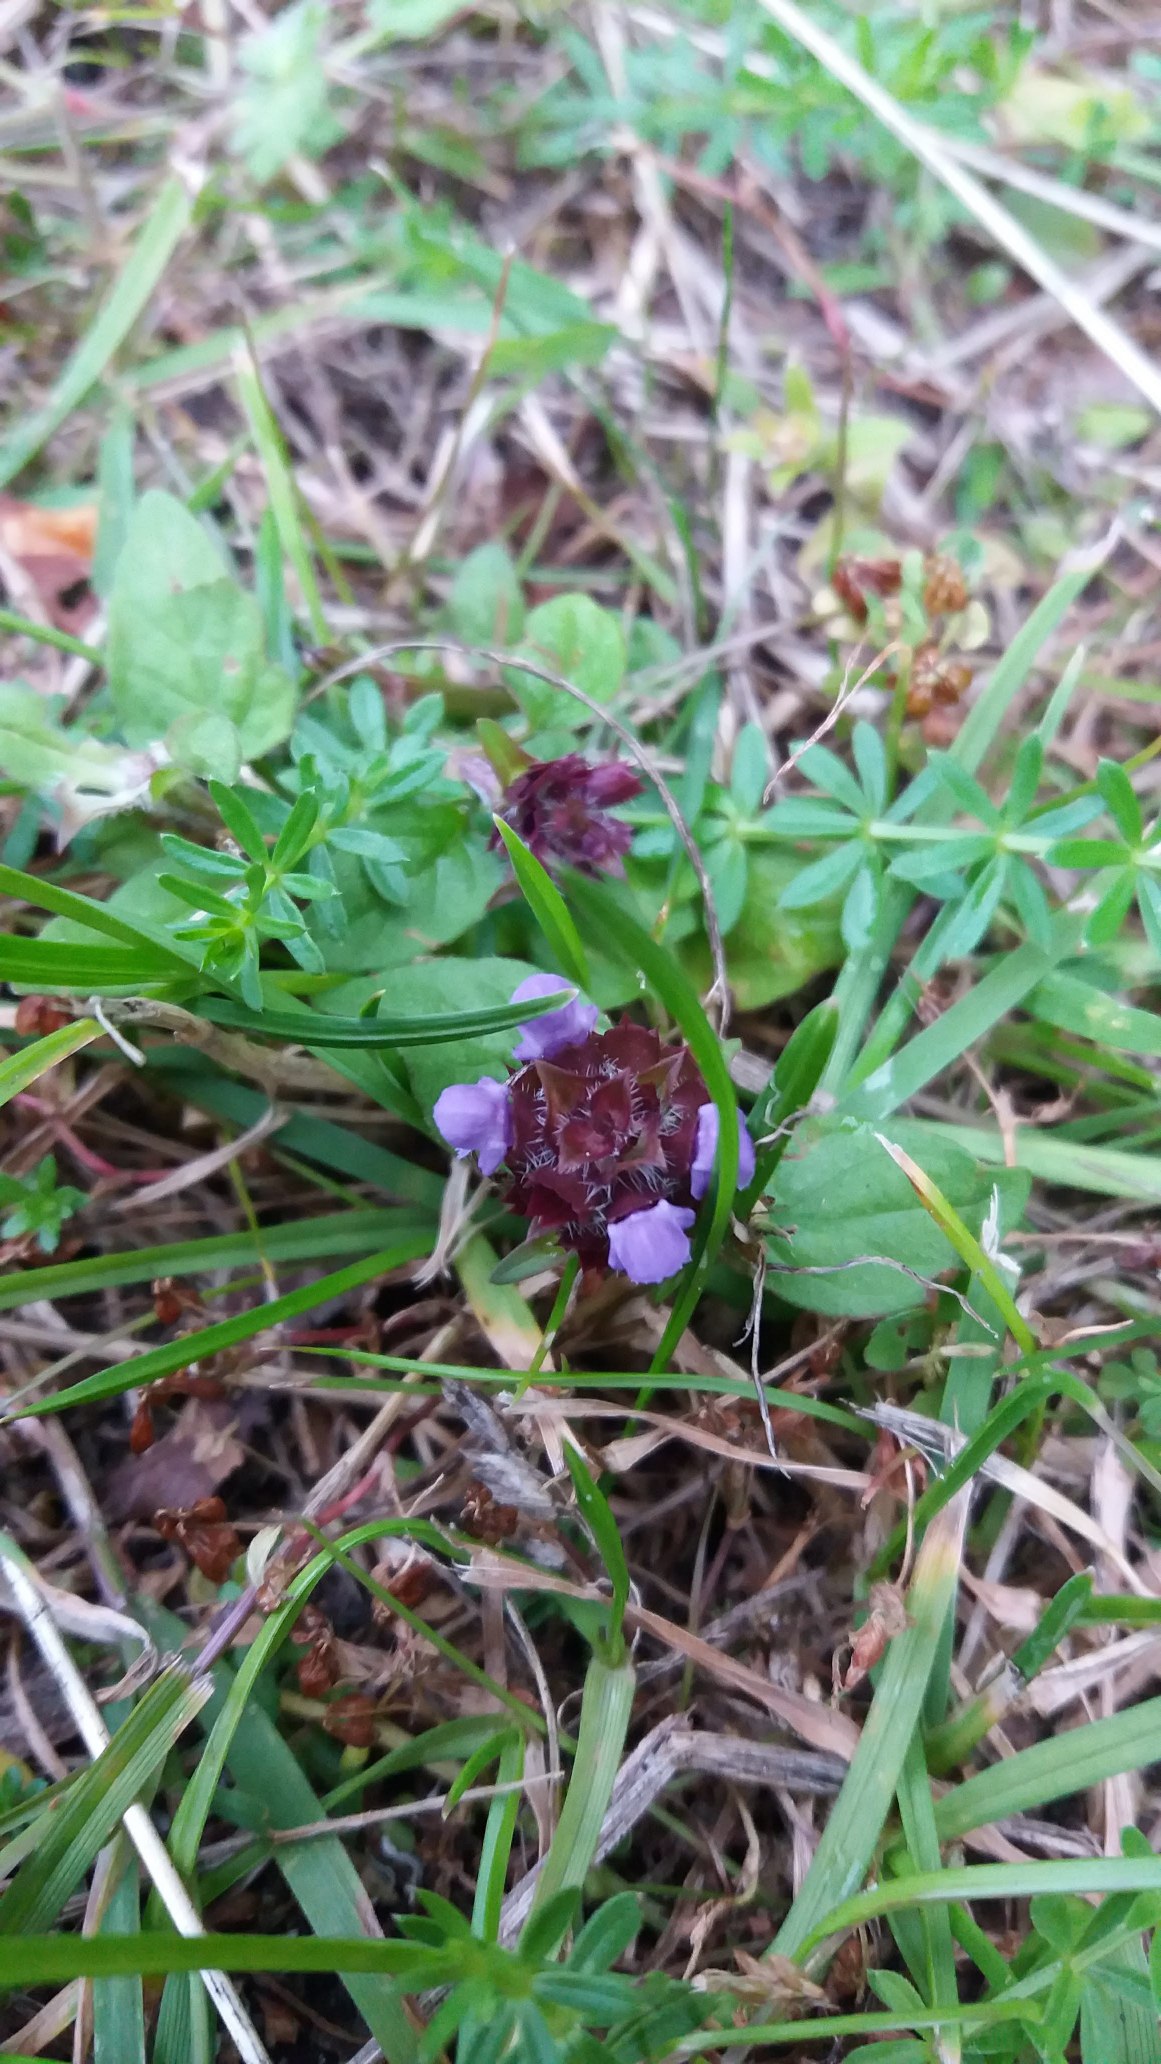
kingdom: Plantae
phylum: Tracheophyta
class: Magnoliopsida
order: Lamiales
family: Lamiaceae
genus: Prunella
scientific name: Prunella vulgaris
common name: Almindelig brunelle
